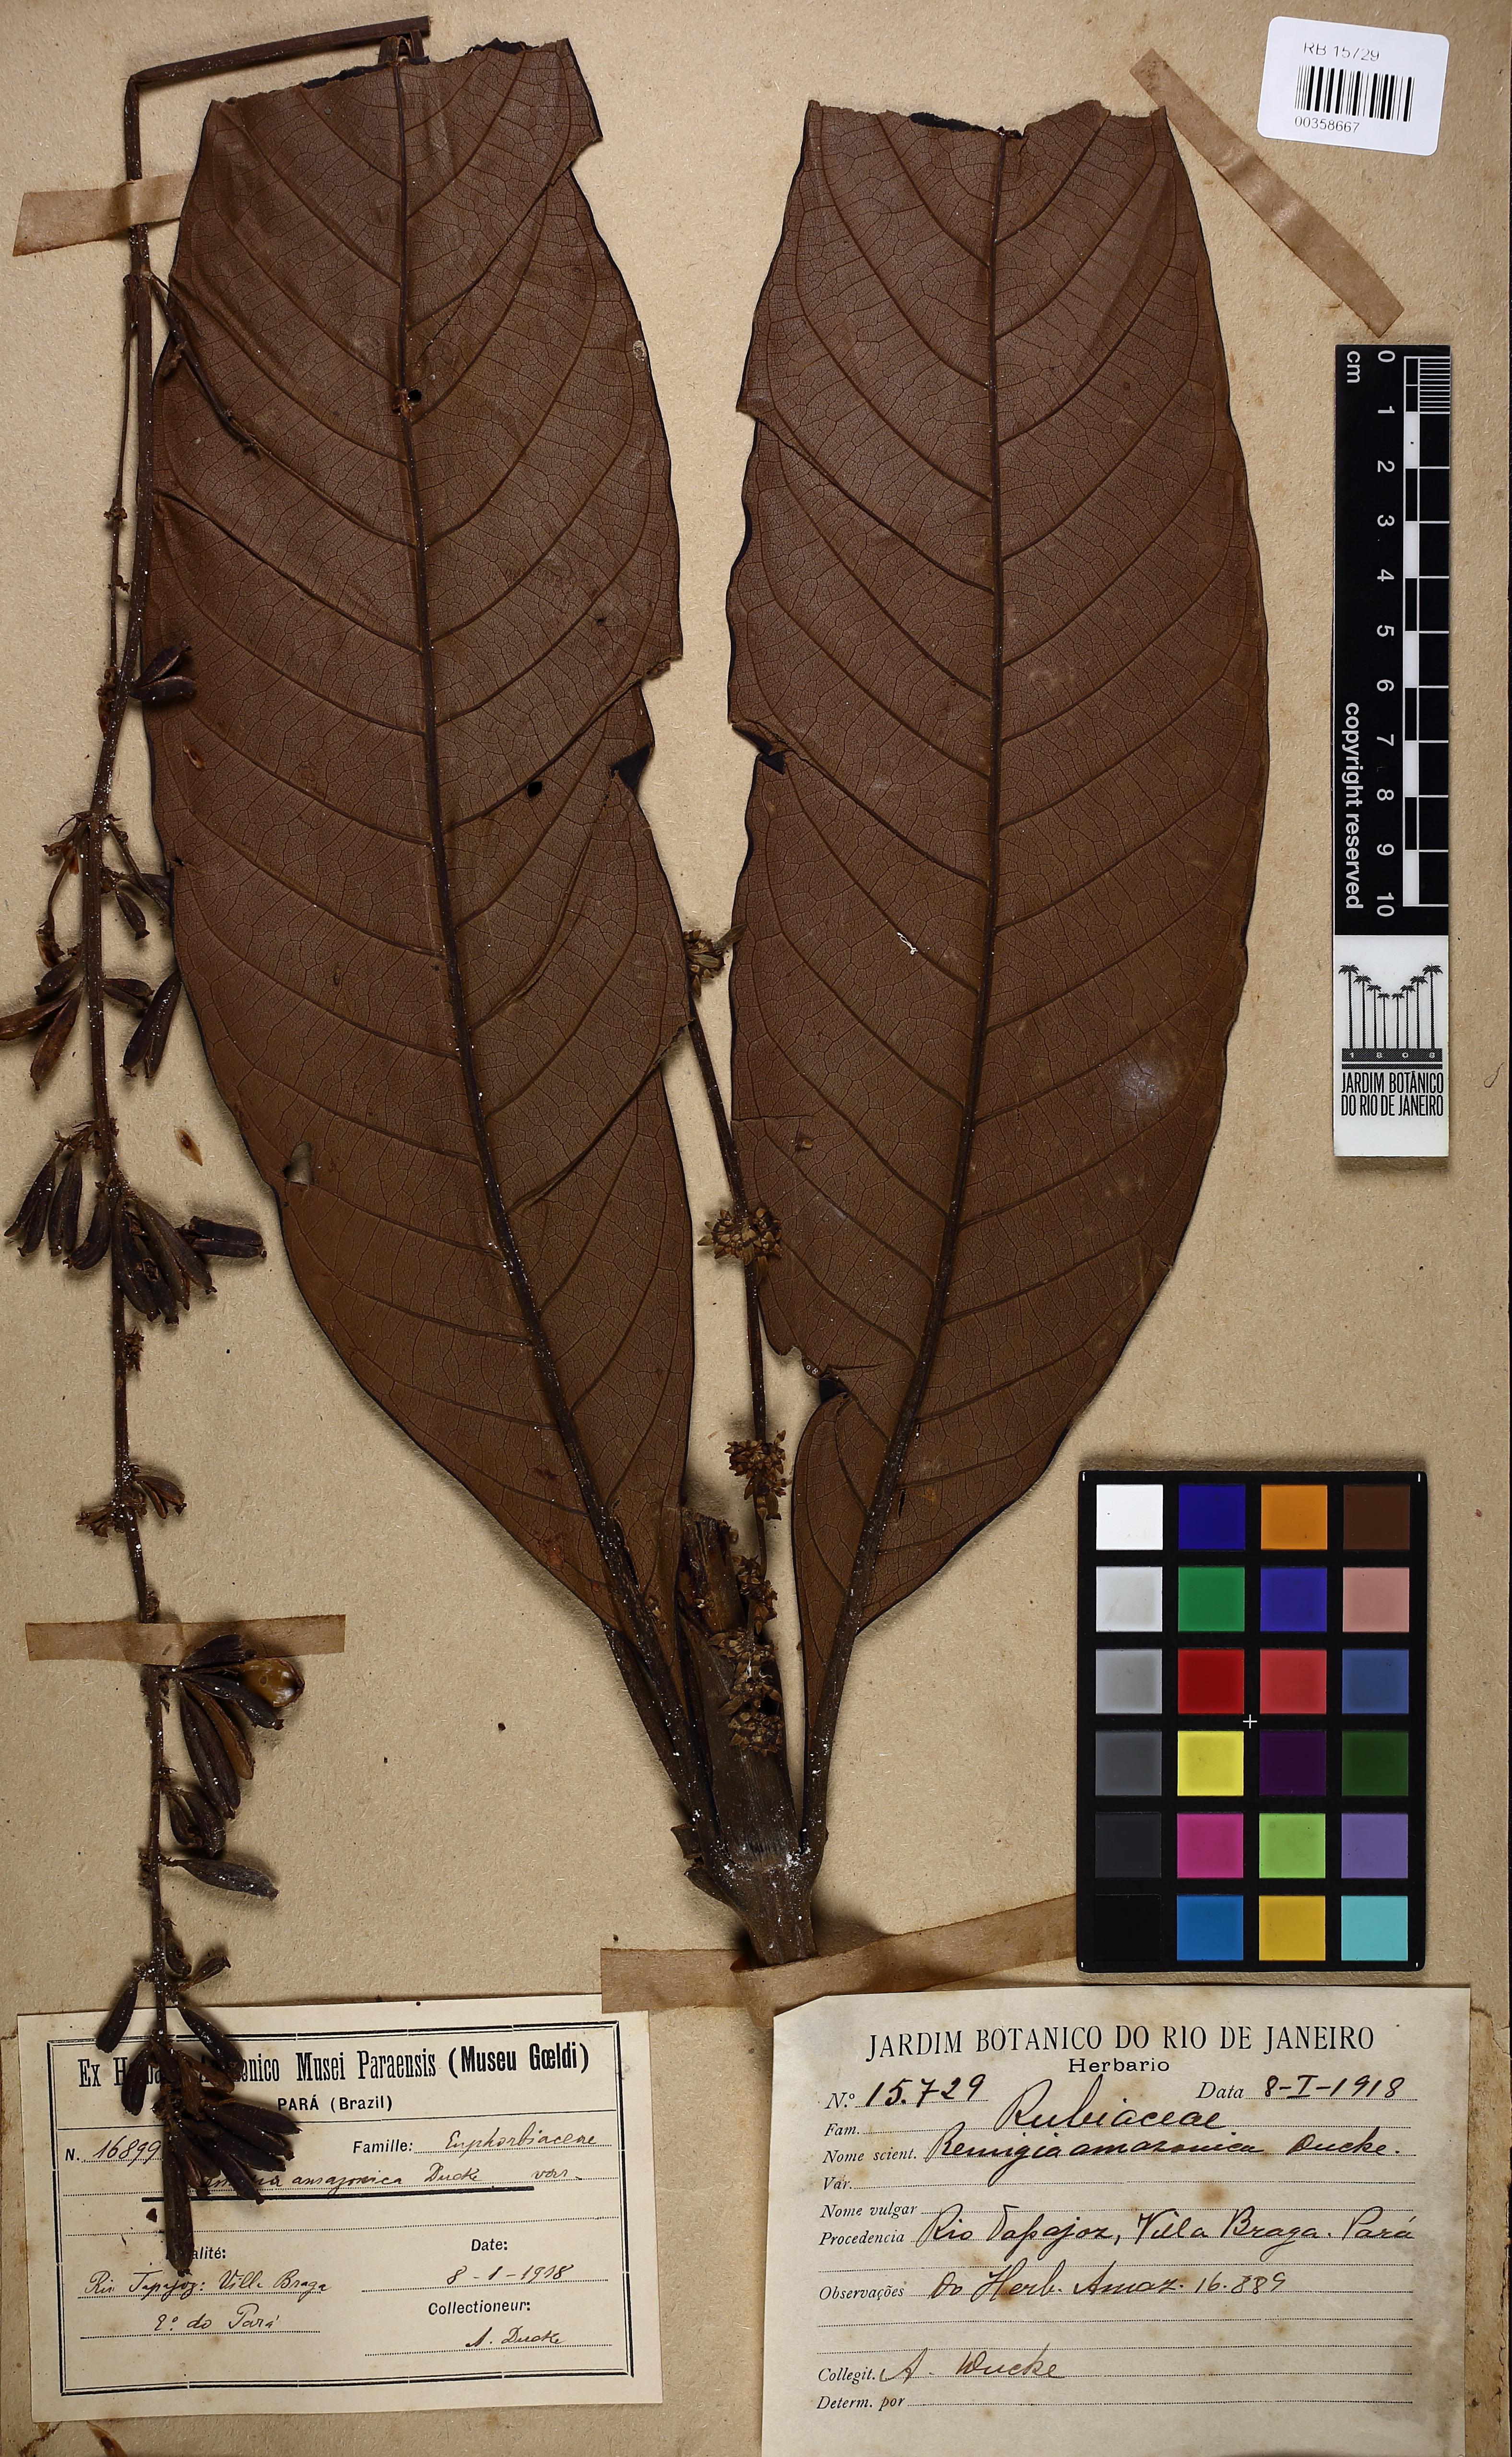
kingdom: Plantae
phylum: Tracheophyta
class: Magnoliopsida
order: Gentianales
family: Rubiaceae
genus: Remijia
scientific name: Remijia amazonica
